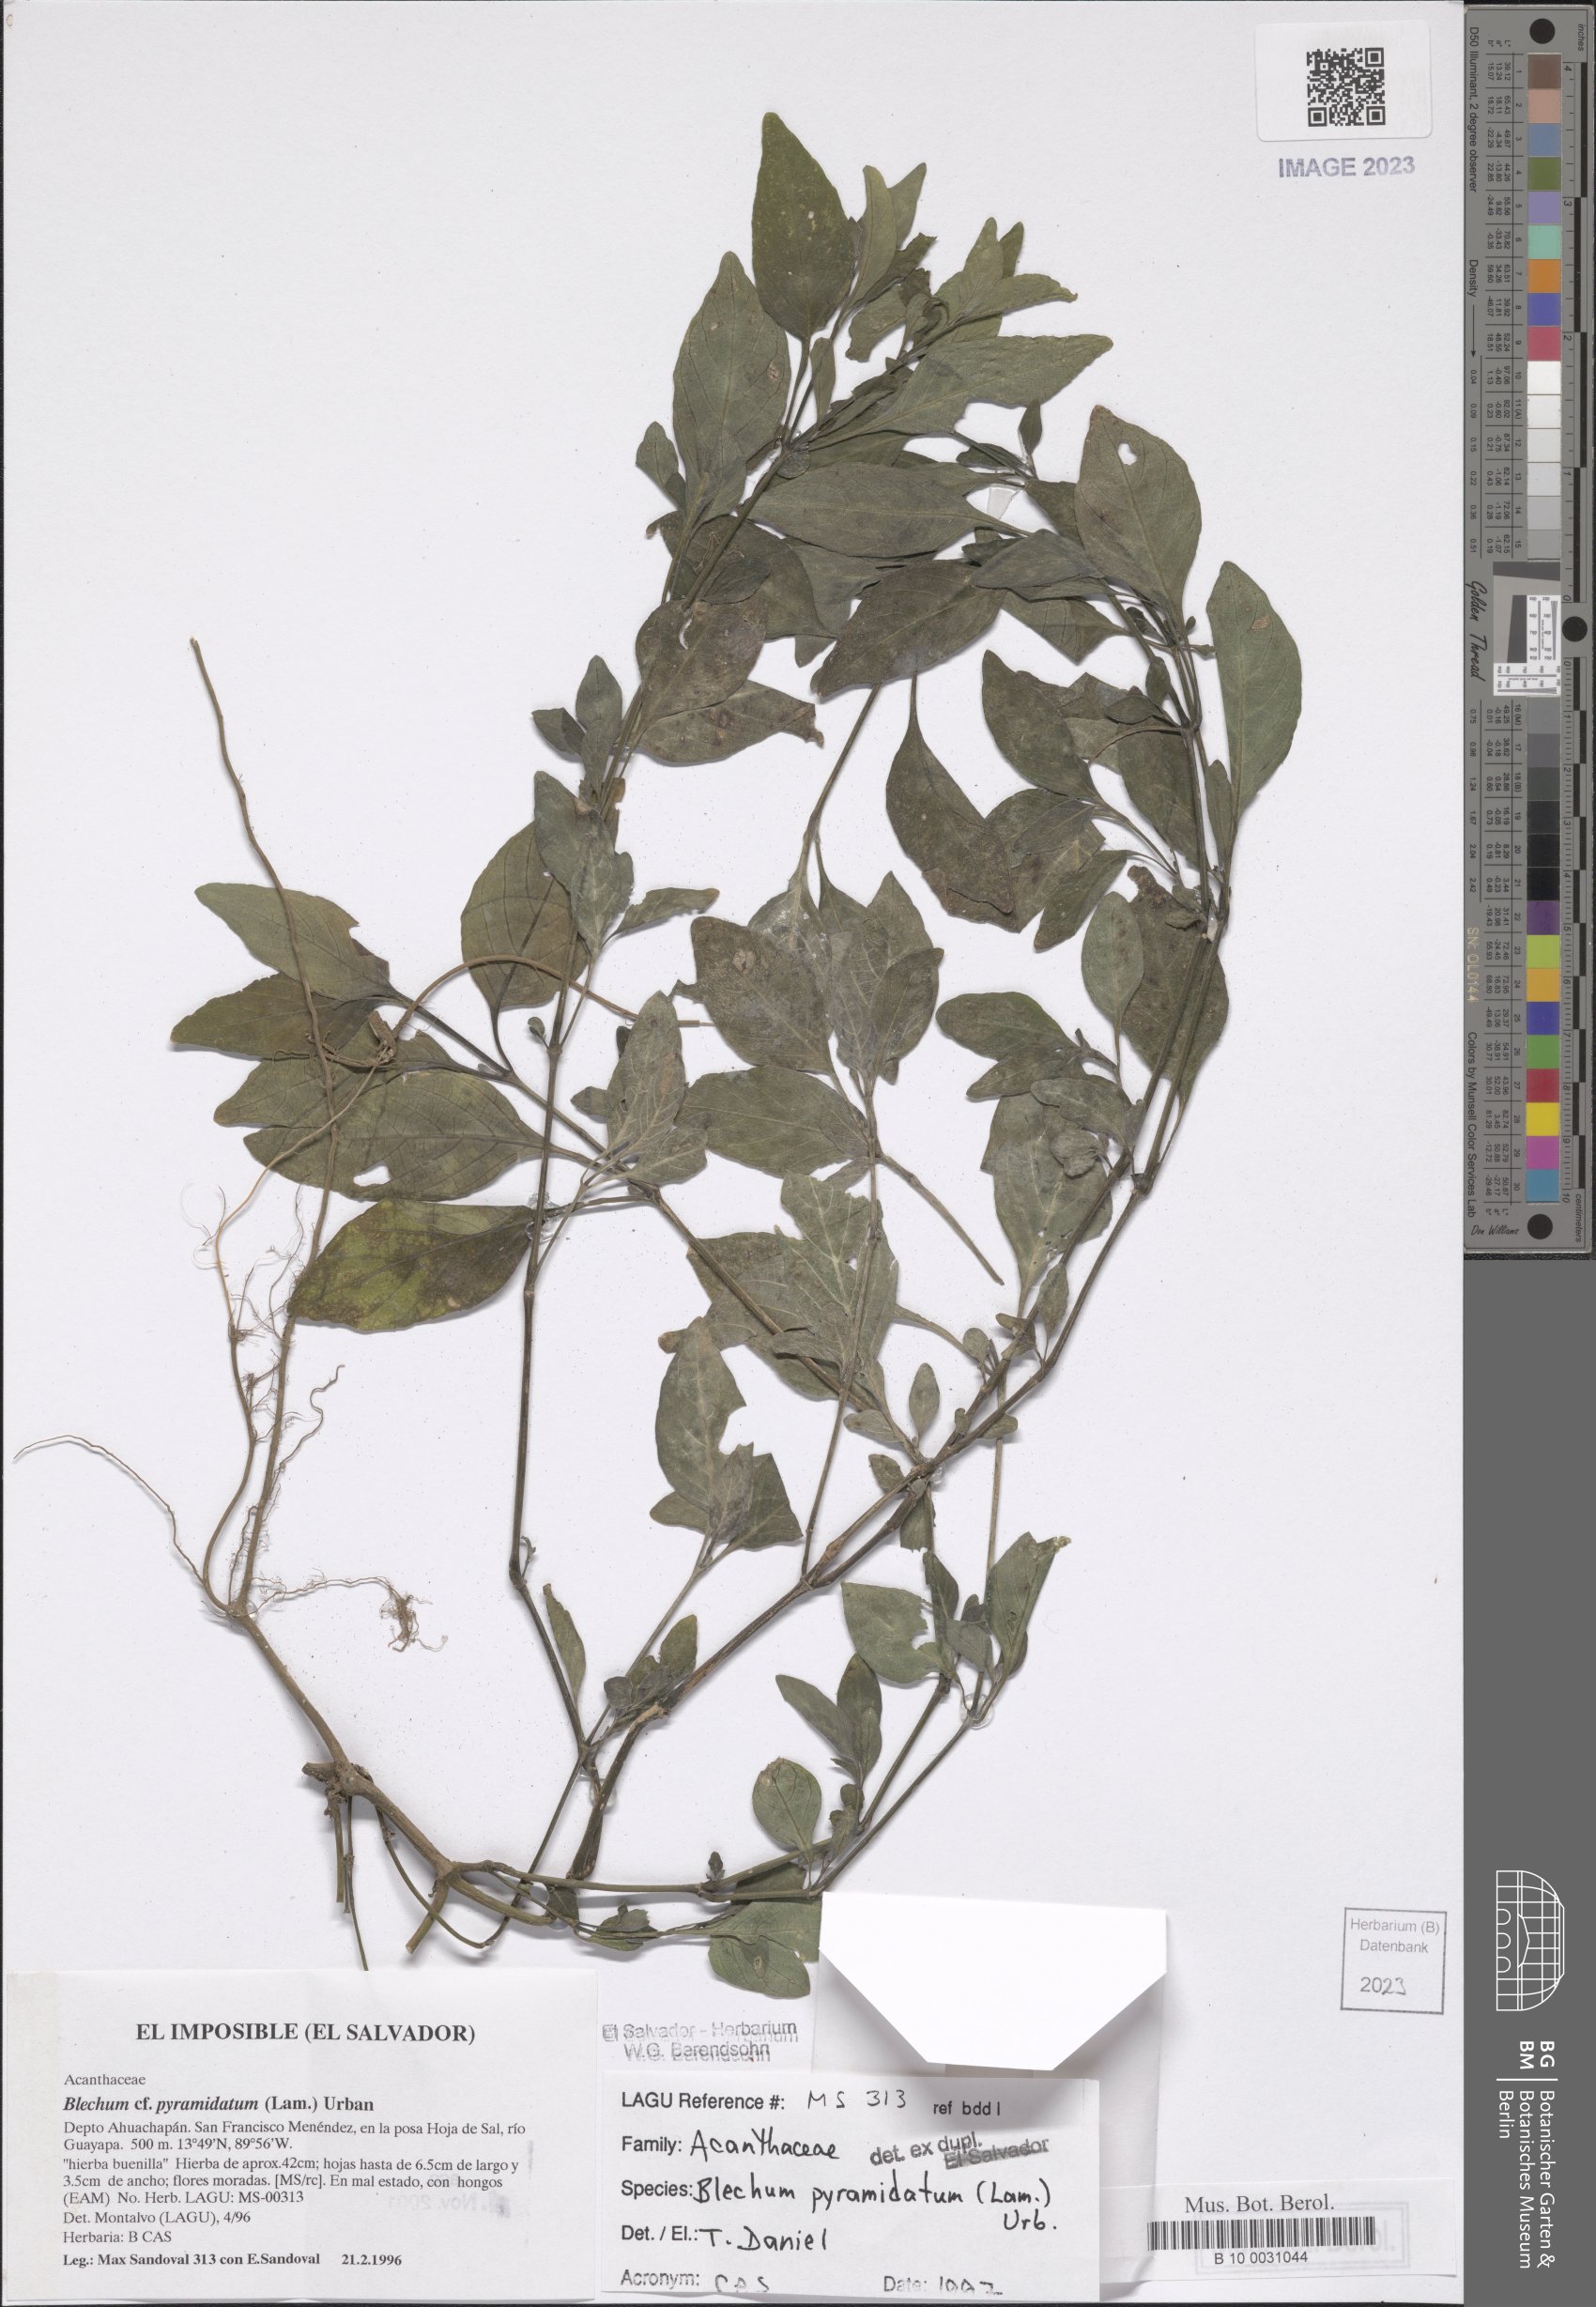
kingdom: Plantae
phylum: Tracheophyta
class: Magnoliopsida
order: Lamiales
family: Acanthaceae
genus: Ruellia
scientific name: Ruellia blechum
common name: Browne's blechum
